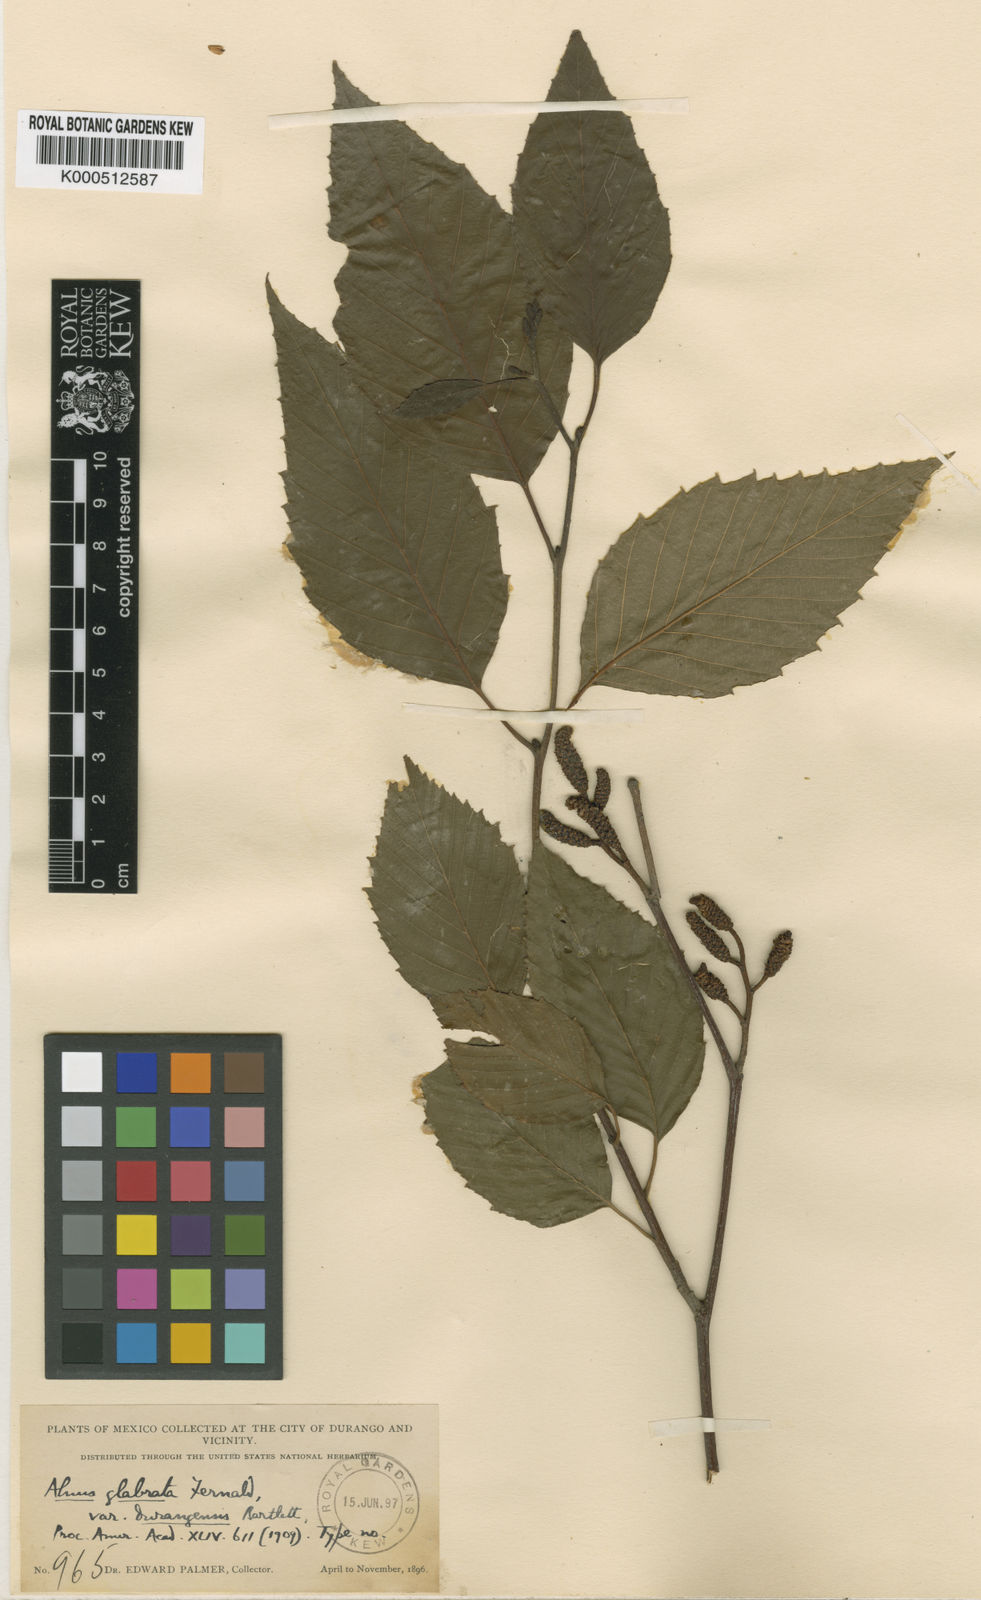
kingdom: Plantae
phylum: Tracheophyta
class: Magnoliopsida
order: Fagales
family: Betulaceae
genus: Alnus
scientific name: Alnus acuminata
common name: Alder
